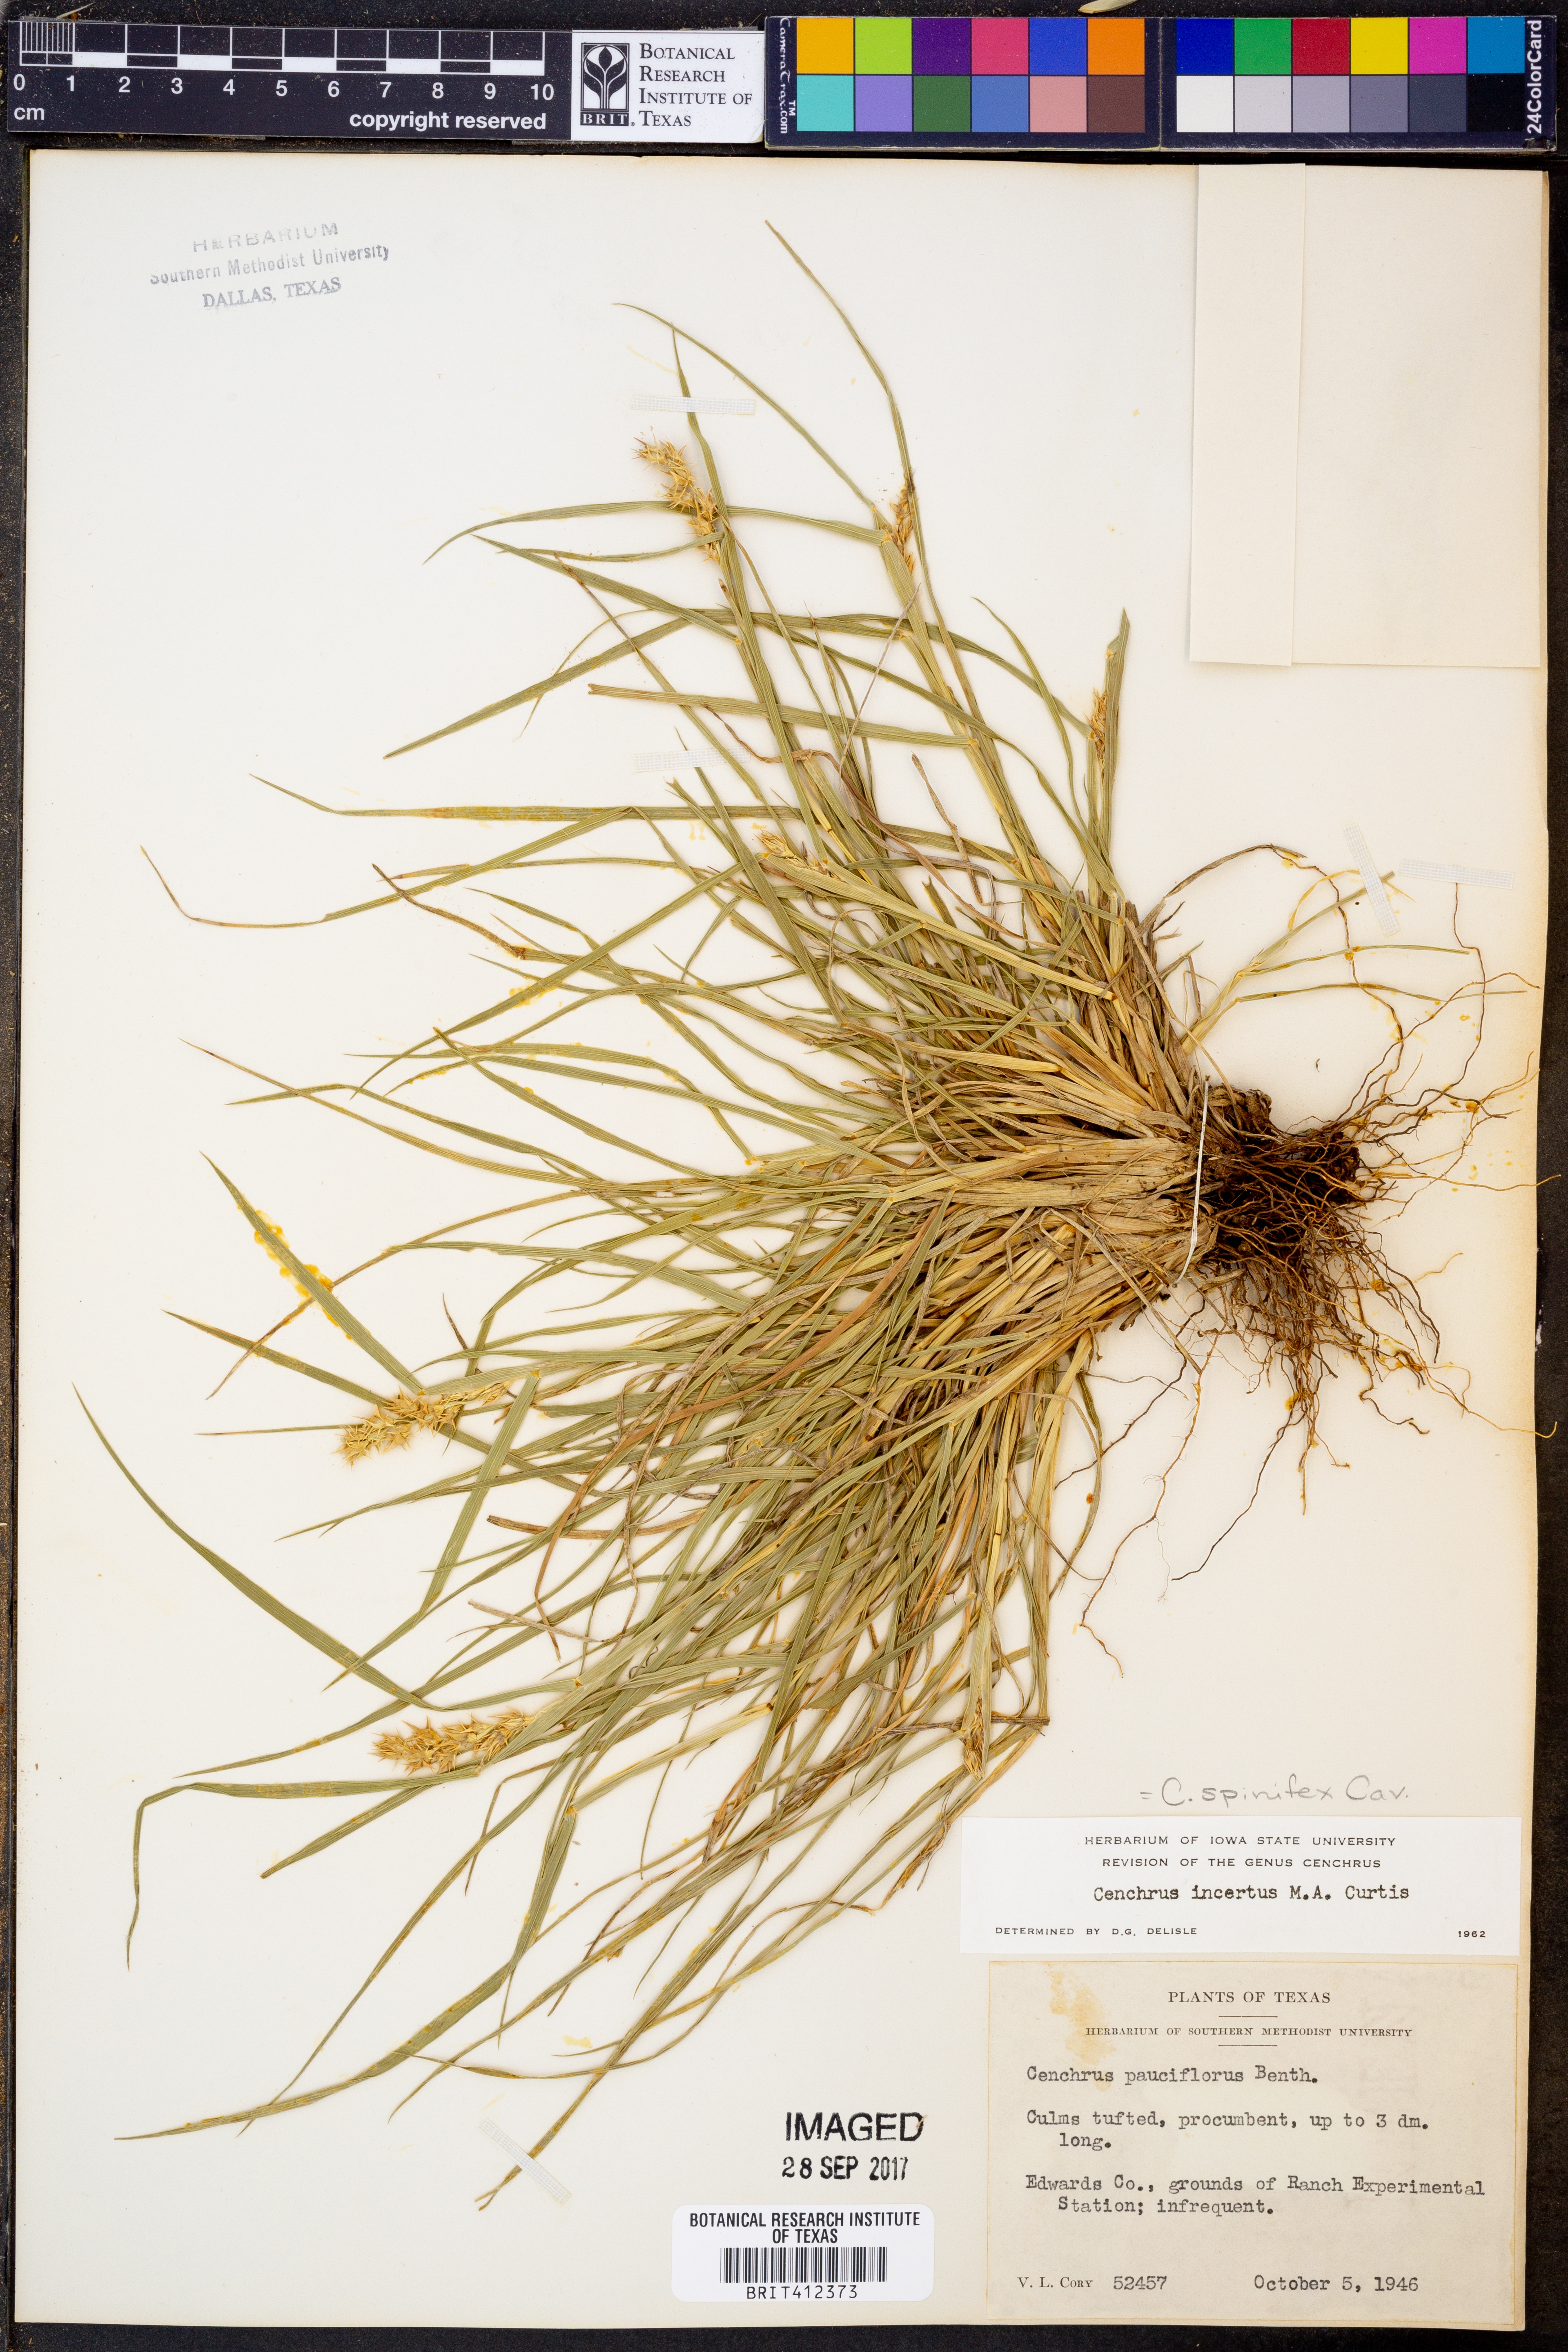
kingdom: Plantae
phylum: Tracheophyta
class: Liliopsida
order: Poales
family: Poaceae
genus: Cenchrus
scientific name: Cenchrus spinifex
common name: Coast sandbur
